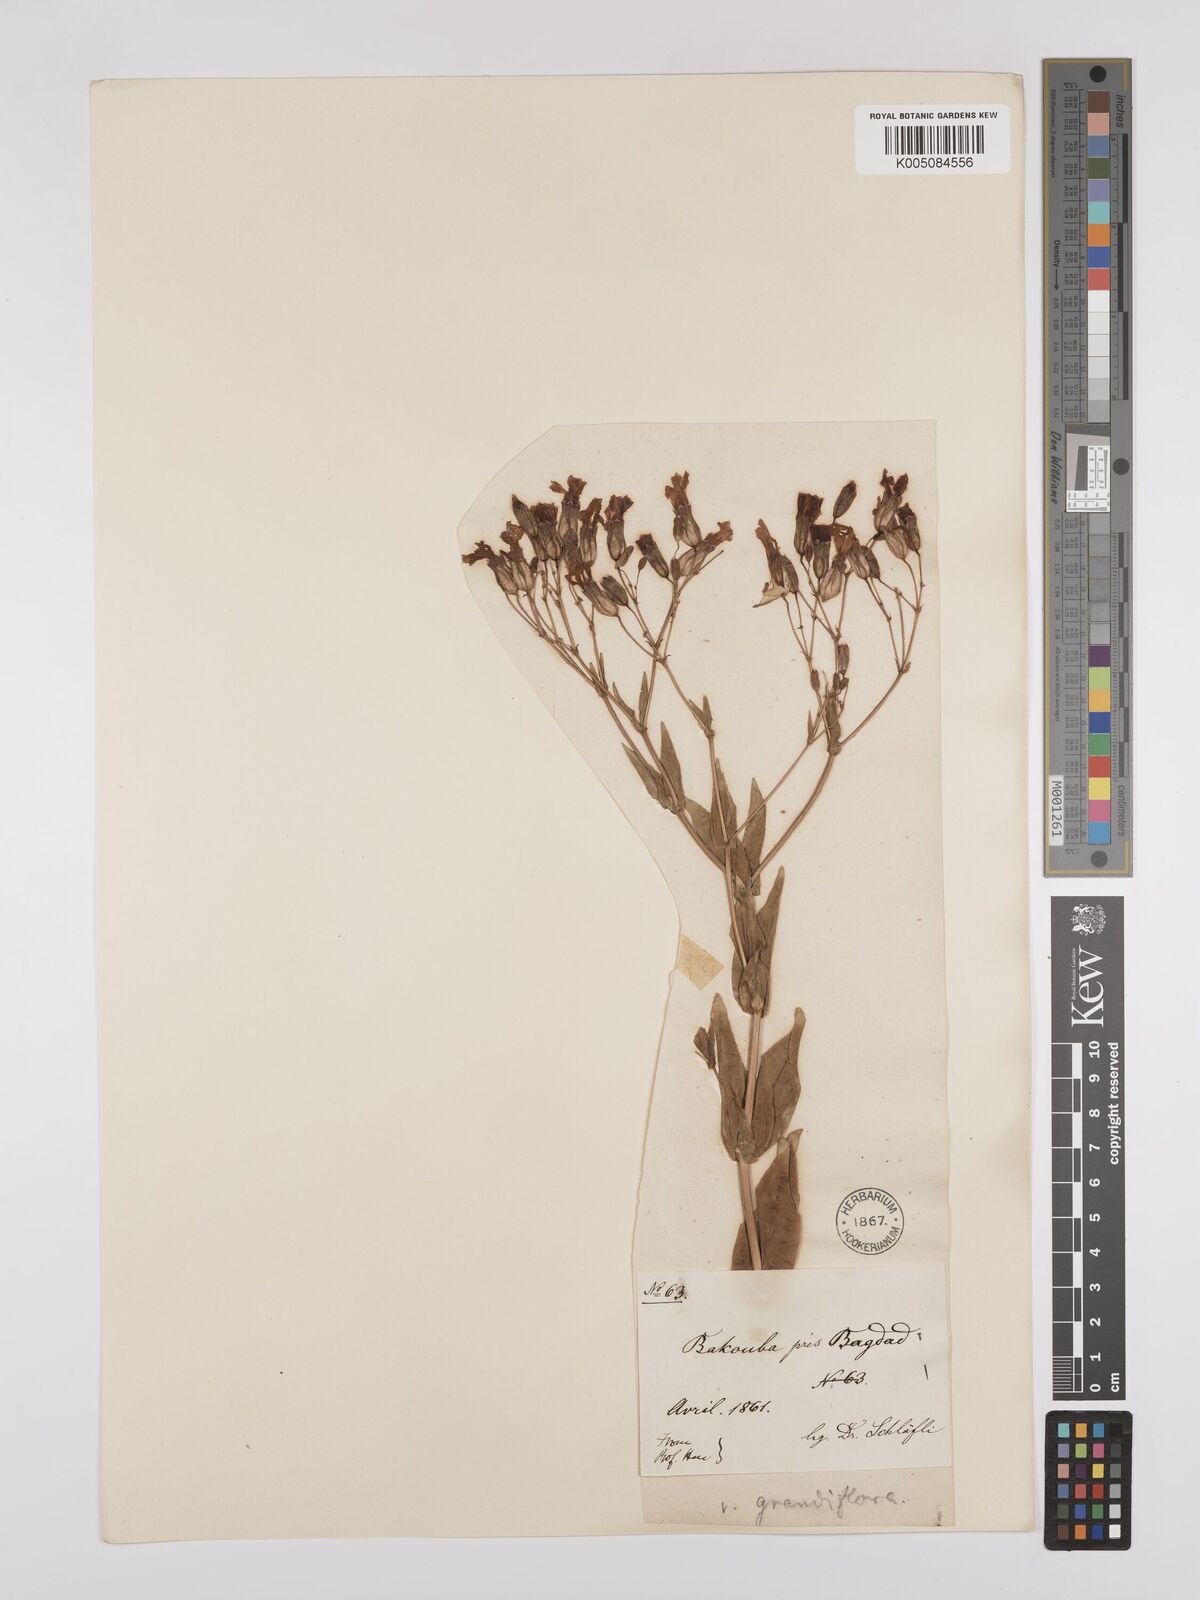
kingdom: Plantae
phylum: Tracheophyta
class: Magnoliopsida
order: Caryophyllales
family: Caryophyllaceae
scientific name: Caryophyllaceae
